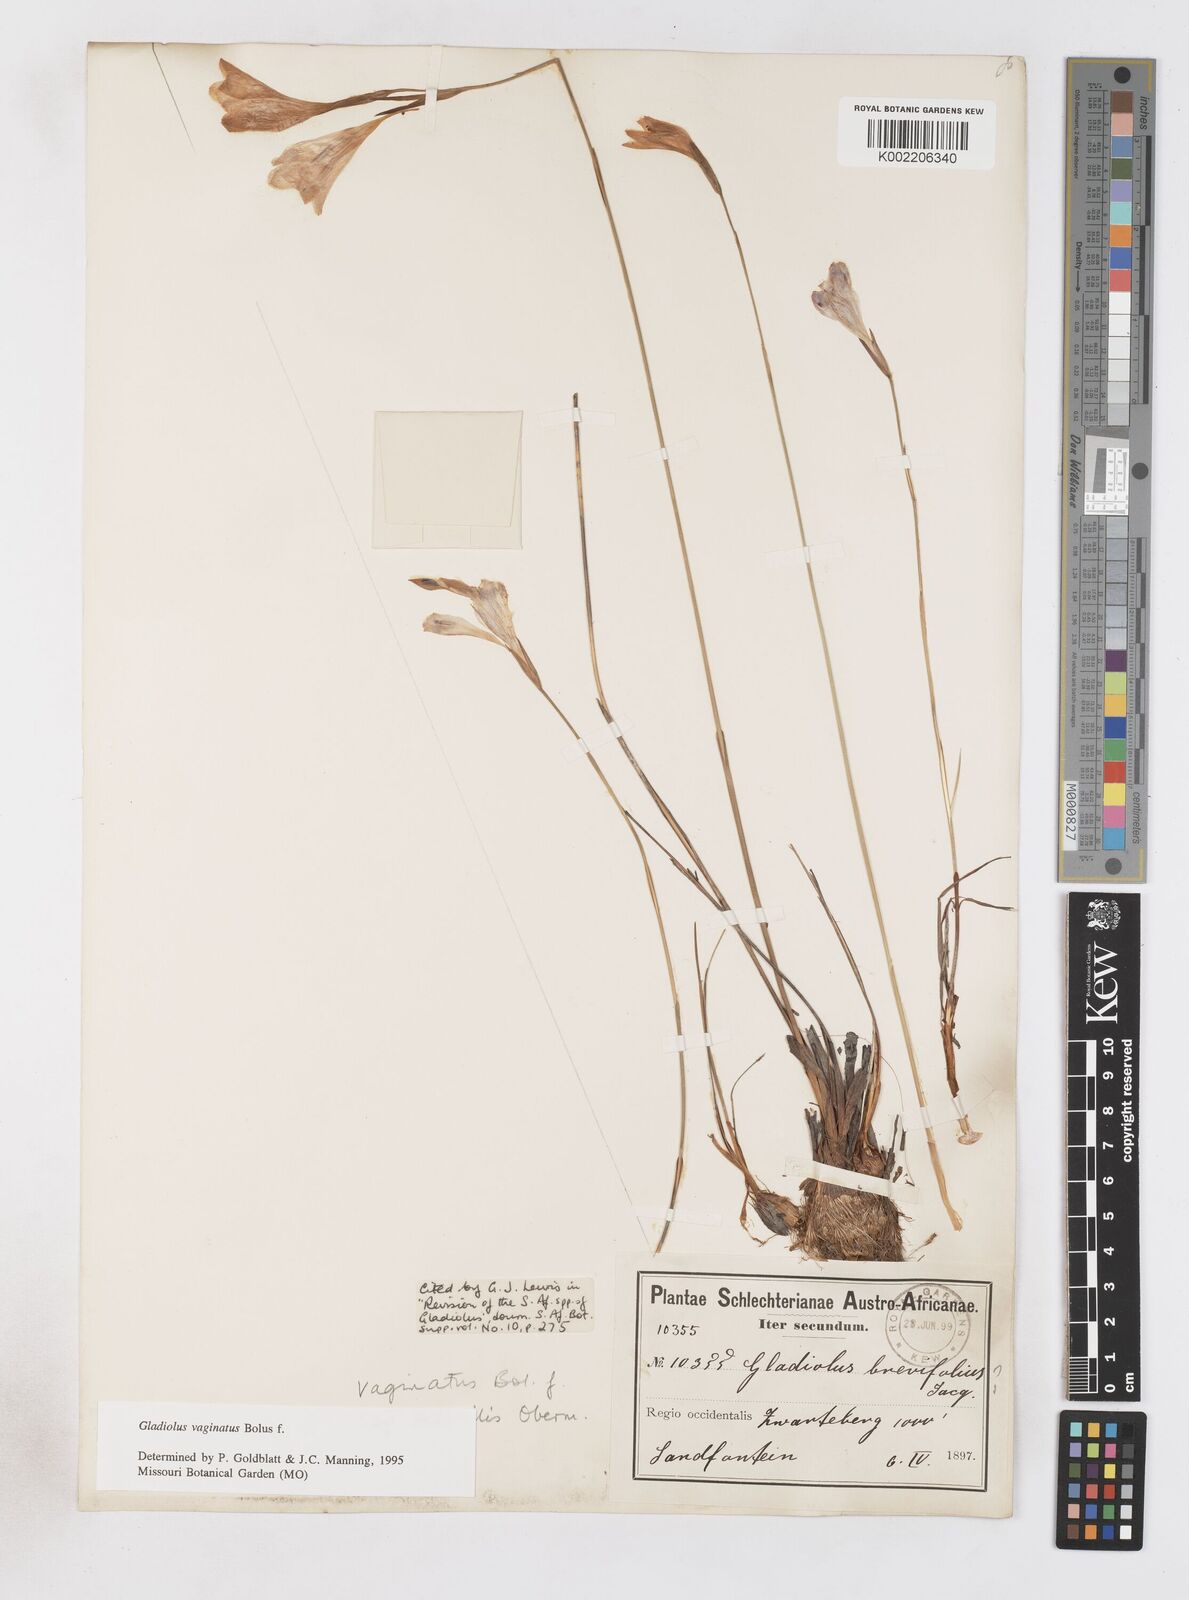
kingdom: Plantae
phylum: Tracheophyta
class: Liliopsida
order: Asparagales
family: Iridaceae
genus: Gladiolus
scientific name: Gladiolus brevifolius
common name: March pypie
